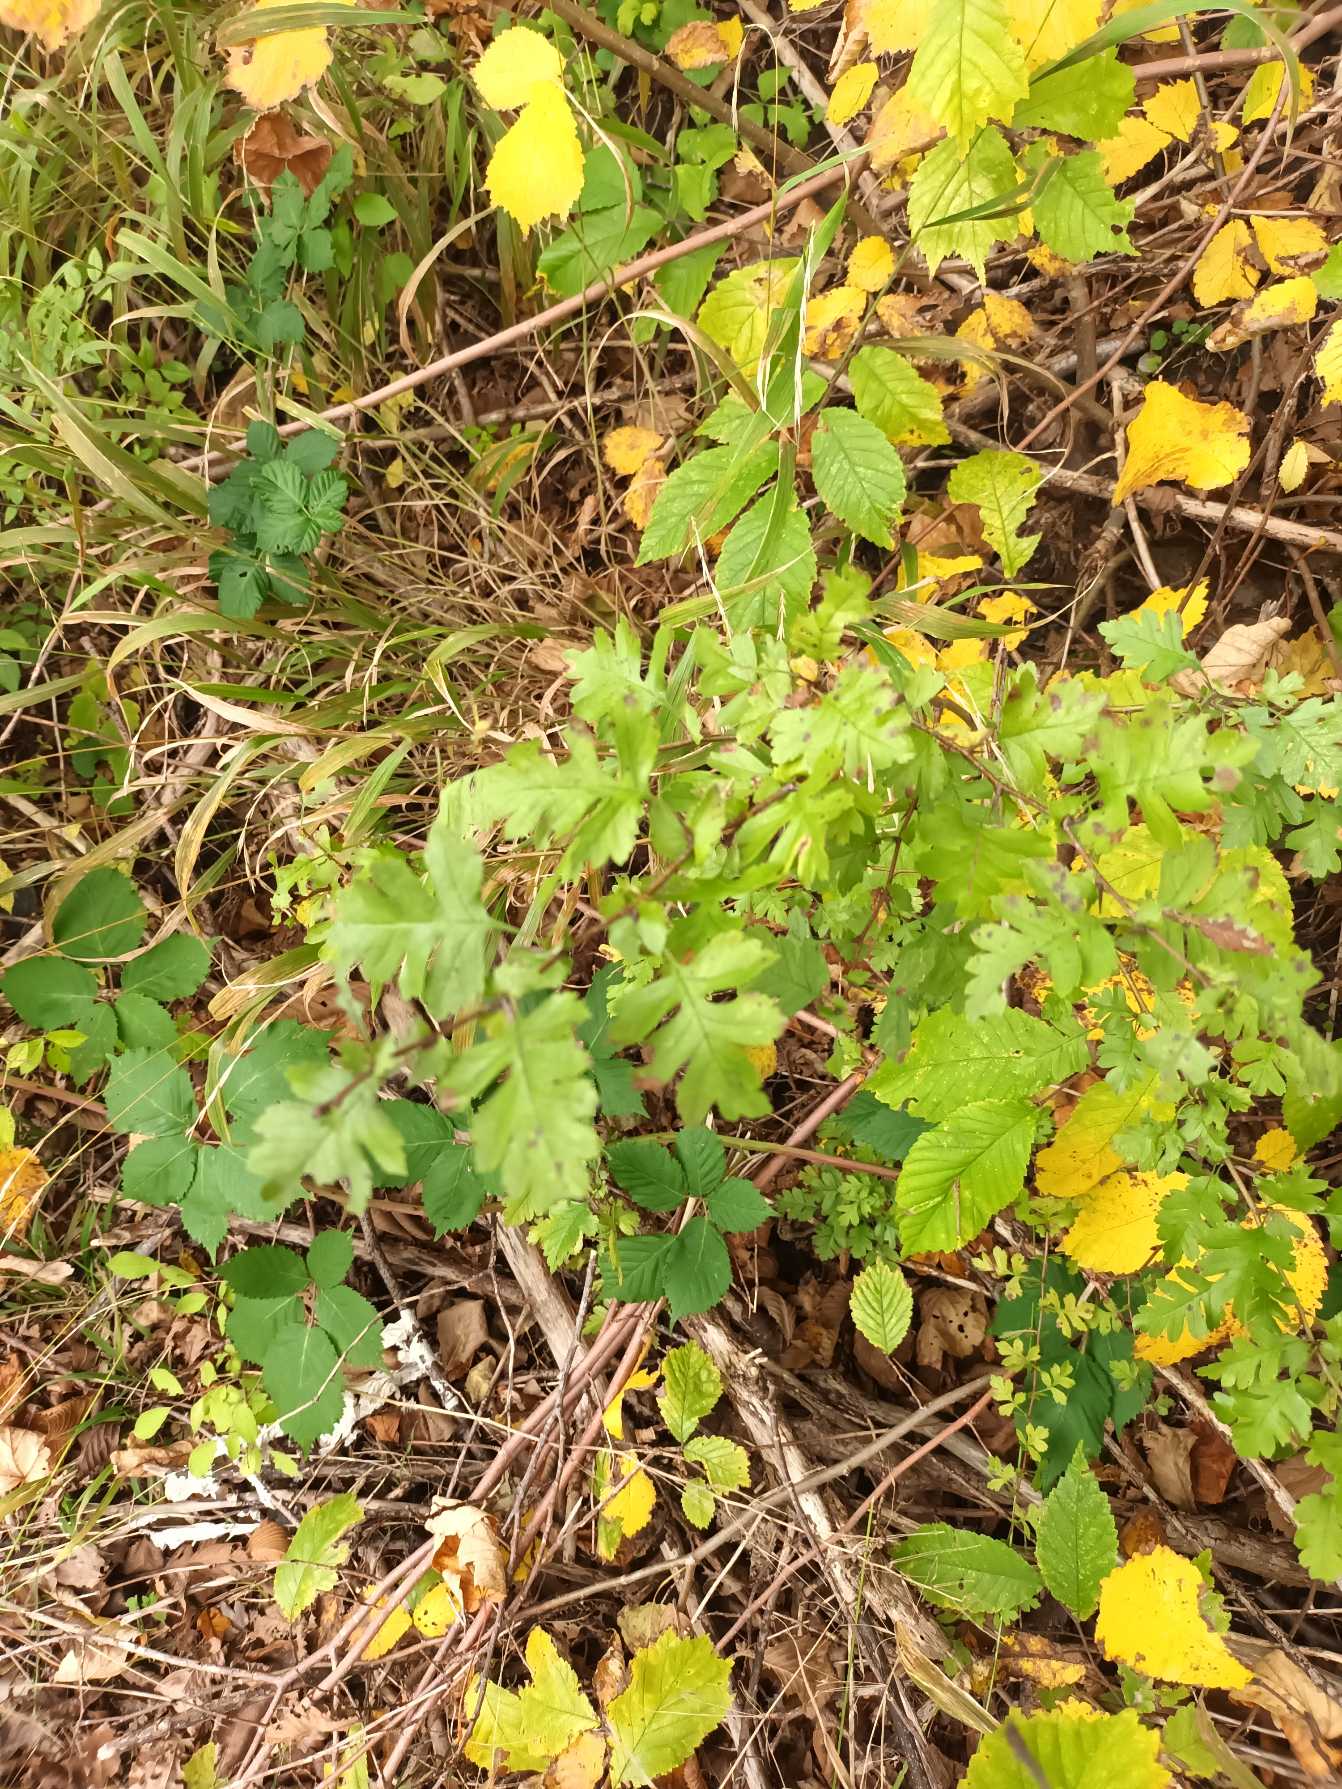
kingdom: Plantae
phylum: Tracheophyta
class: Magnoliopsida
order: Rosales
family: Rosaceae
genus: Crataegus
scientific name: Crataegus monogyna
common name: Engriflet hvidtjørn
